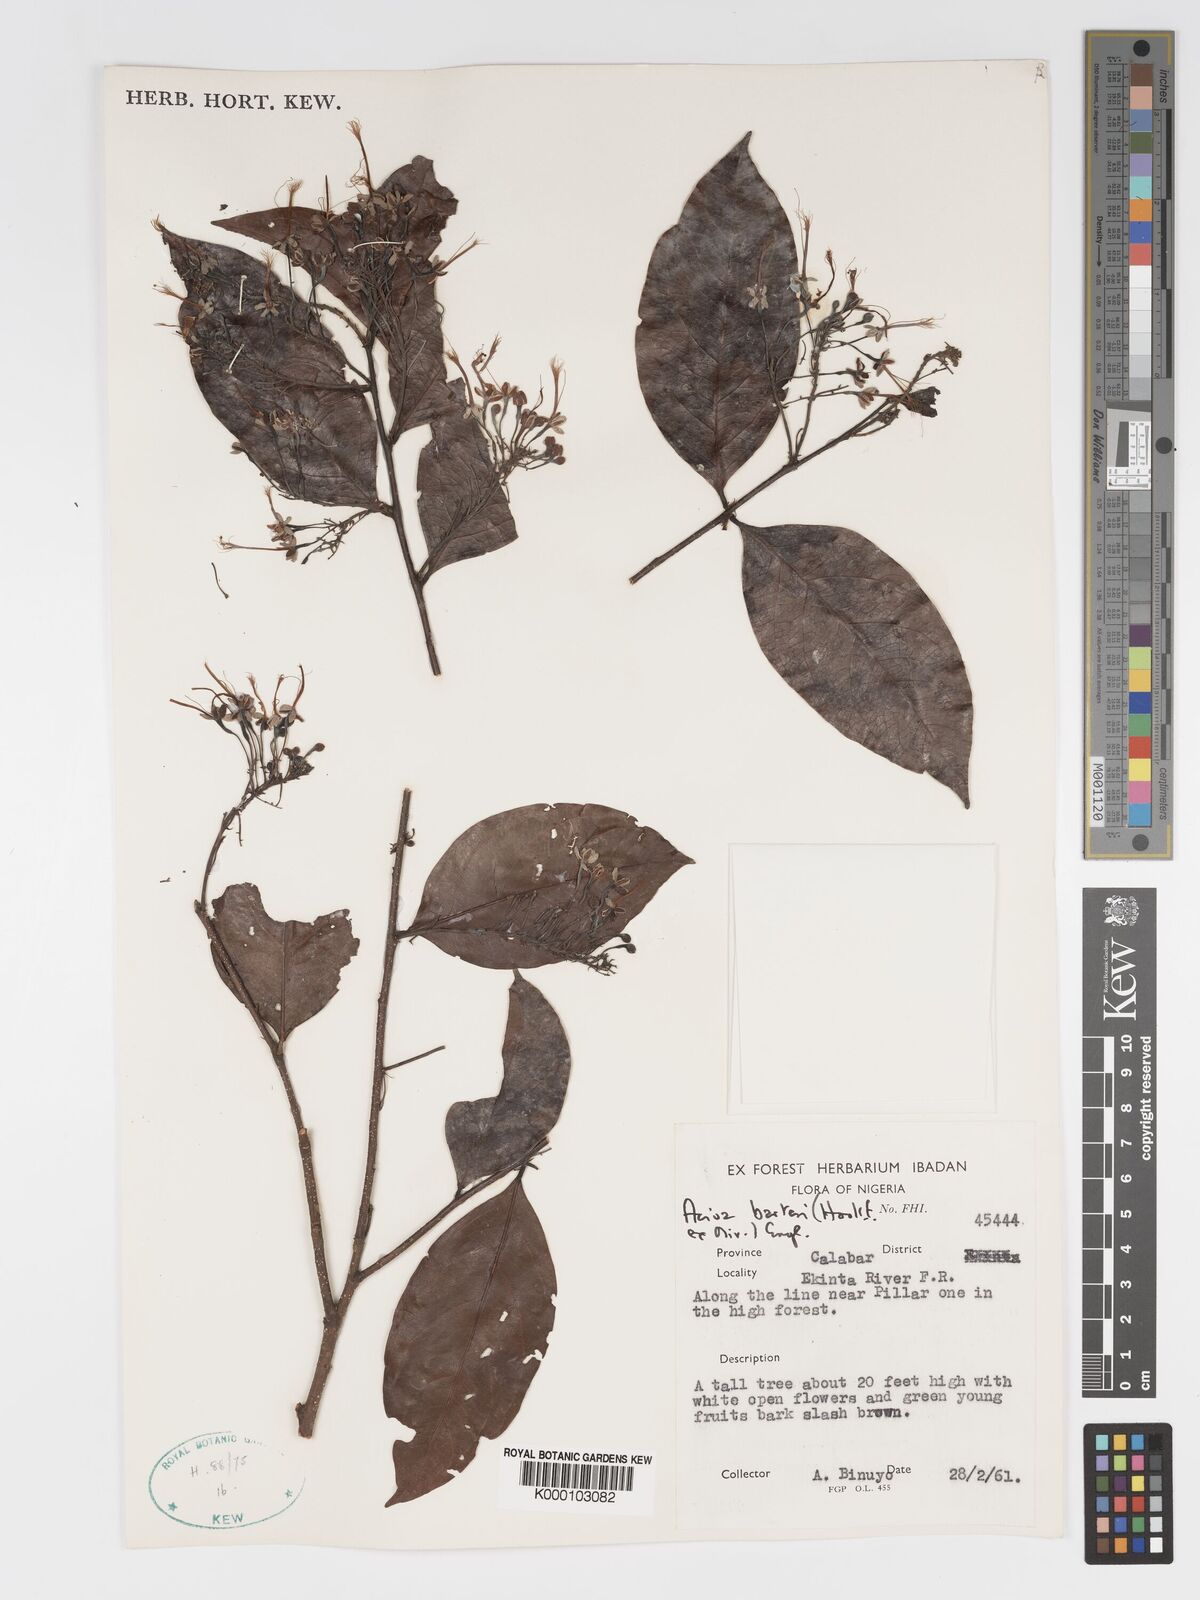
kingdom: Plantae
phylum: Tracheophyta
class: Magnoliopsida
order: Malpighiales
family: Chrysobalanaceae
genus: Dactyladenia
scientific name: Dactyladenia barteri
